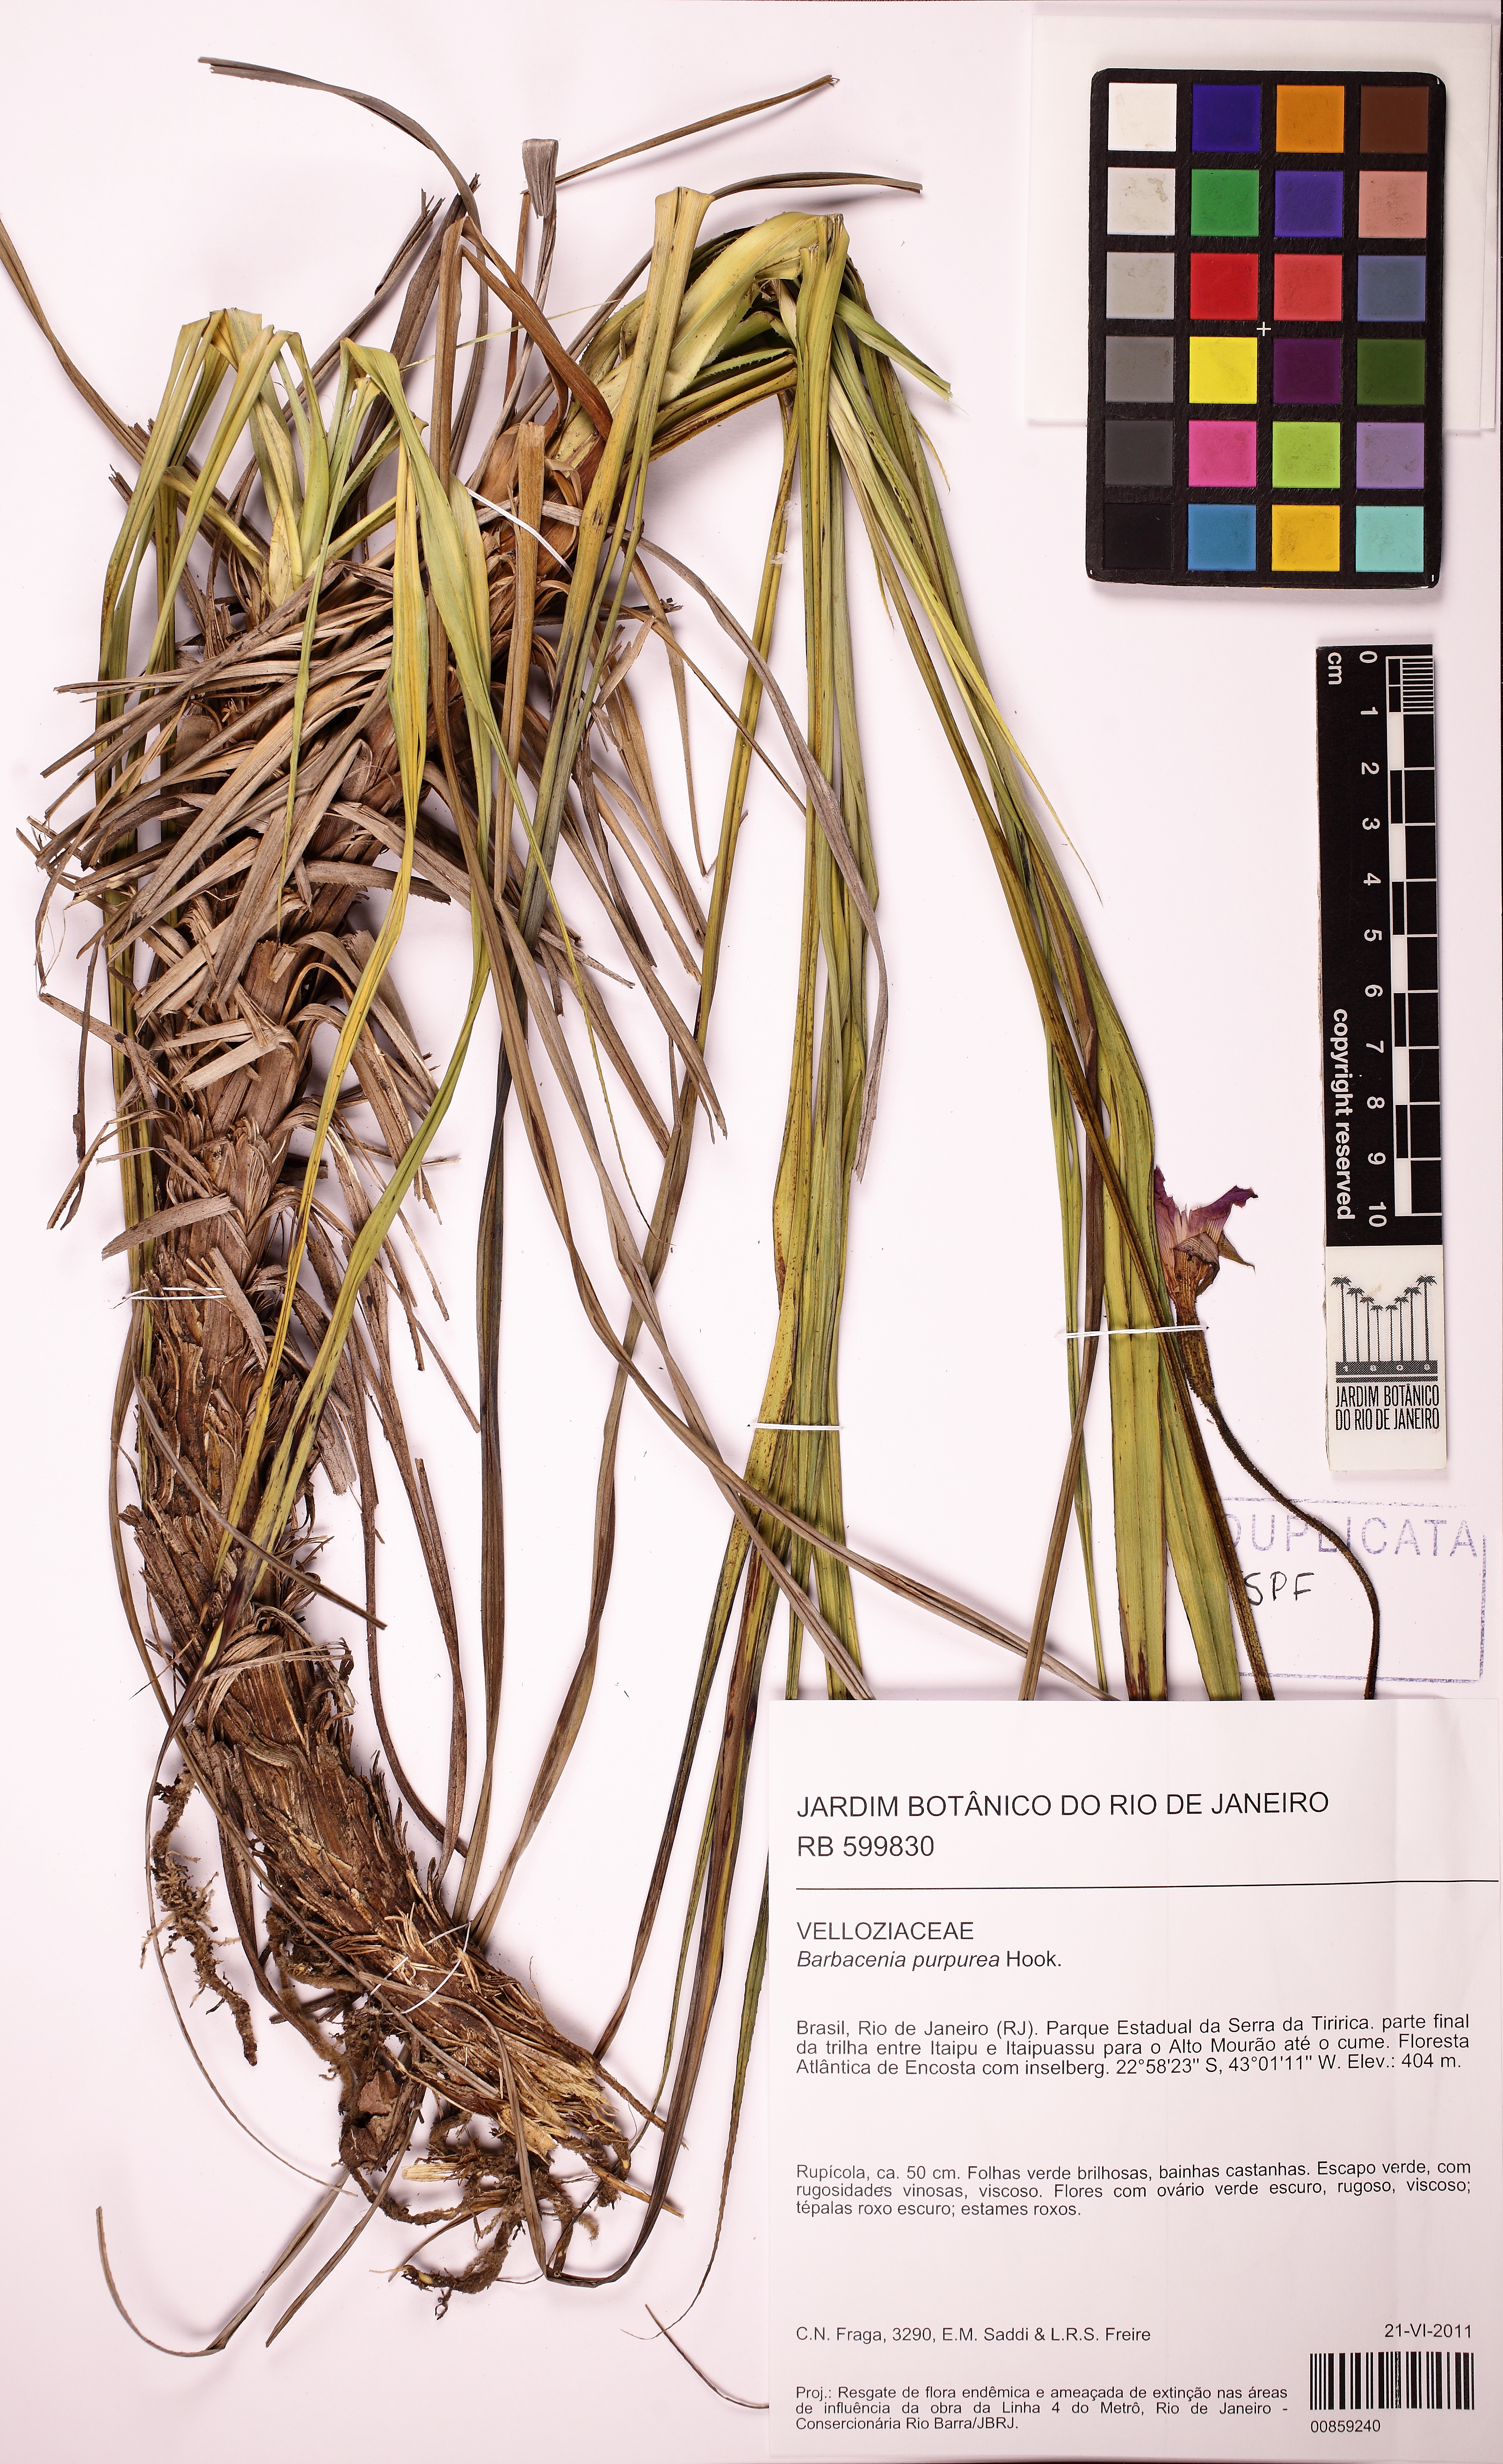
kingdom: Plantae
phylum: Tracheophyta
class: Liliopsida
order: Pandanales
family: Velloziaceae
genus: Barbacenia
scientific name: Barbacenia purpurea
